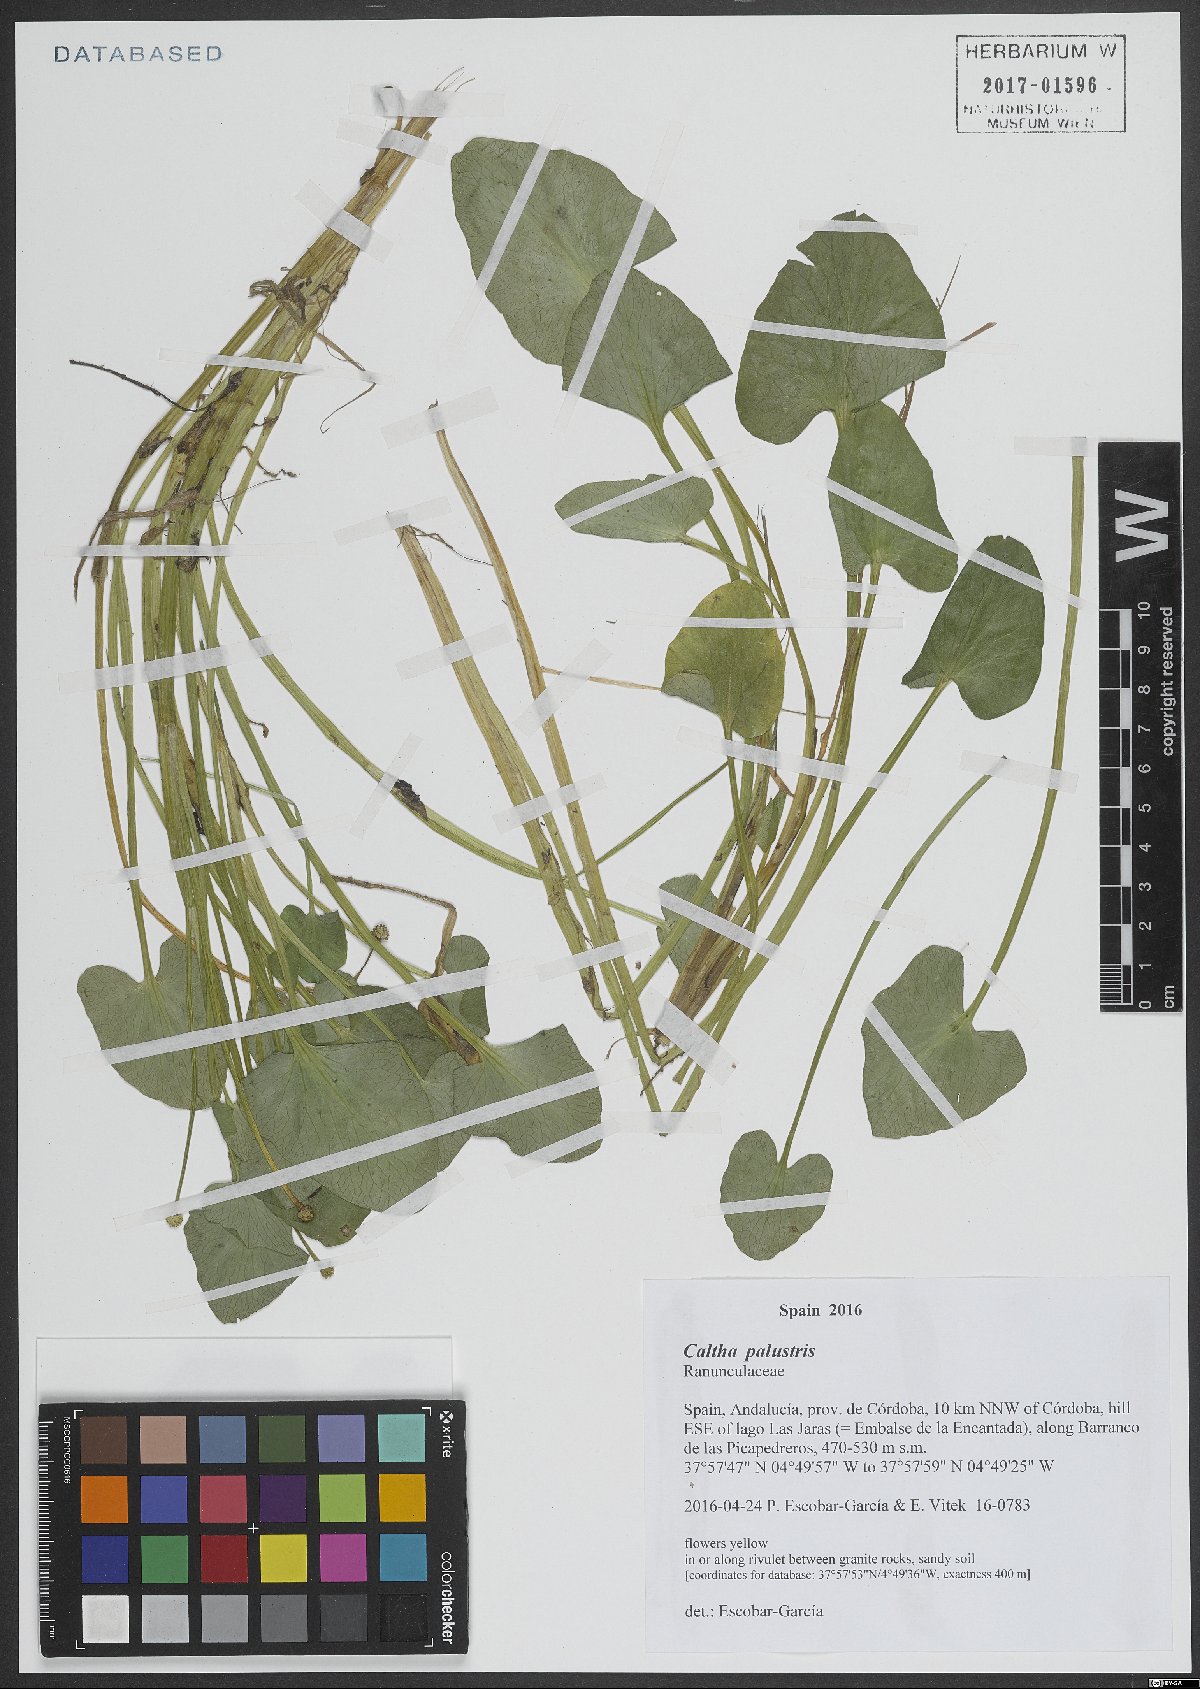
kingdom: Plantae
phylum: Tracheophyta
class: Magnoliopsida
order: Ranunculales
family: Ranunculaceae
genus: Caltha
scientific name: Caltha palustris
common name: Marsh marigold
